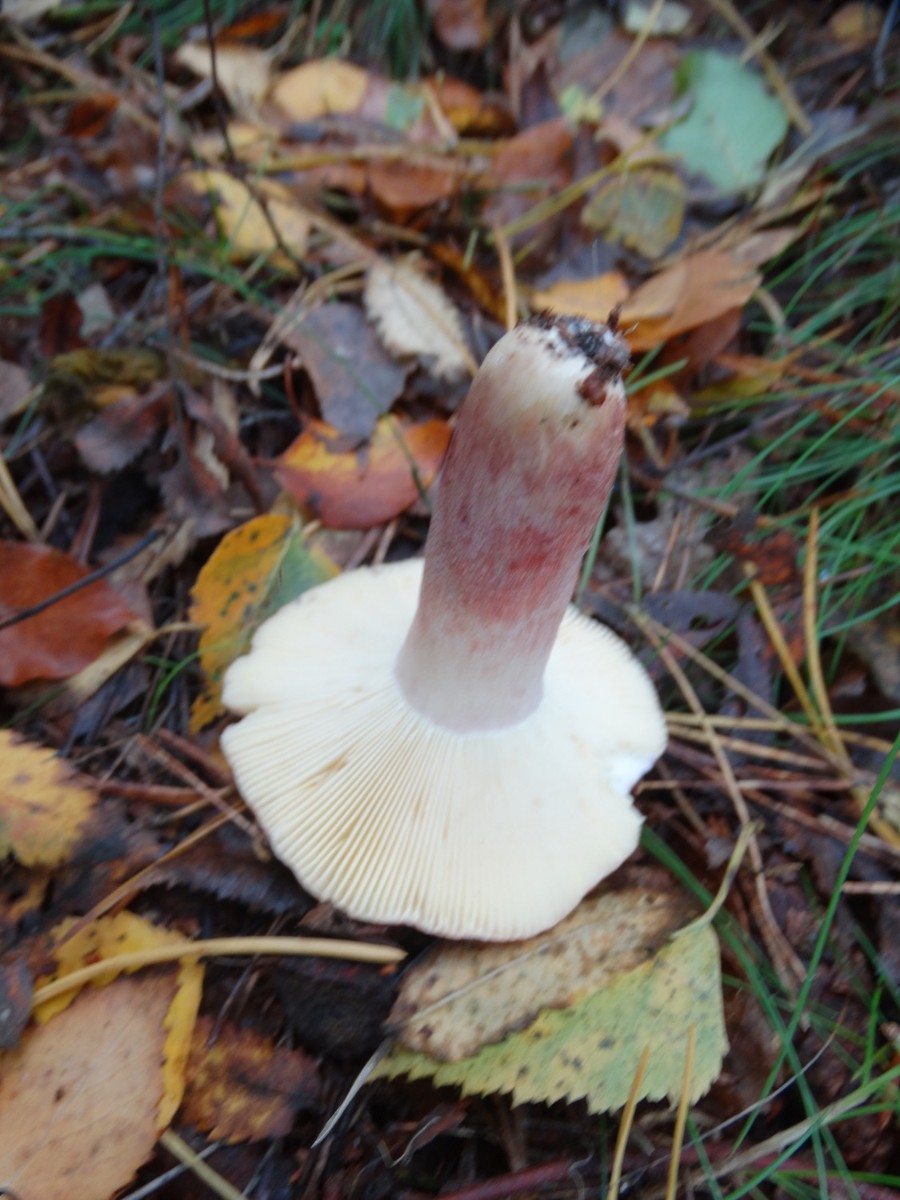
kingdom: Fungi
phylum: Basidiomycota
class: Agaricomycetes
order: Russulales
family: Russulaceae
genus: Russula
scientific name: Russula sardonia
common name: citronbladet skørhat
